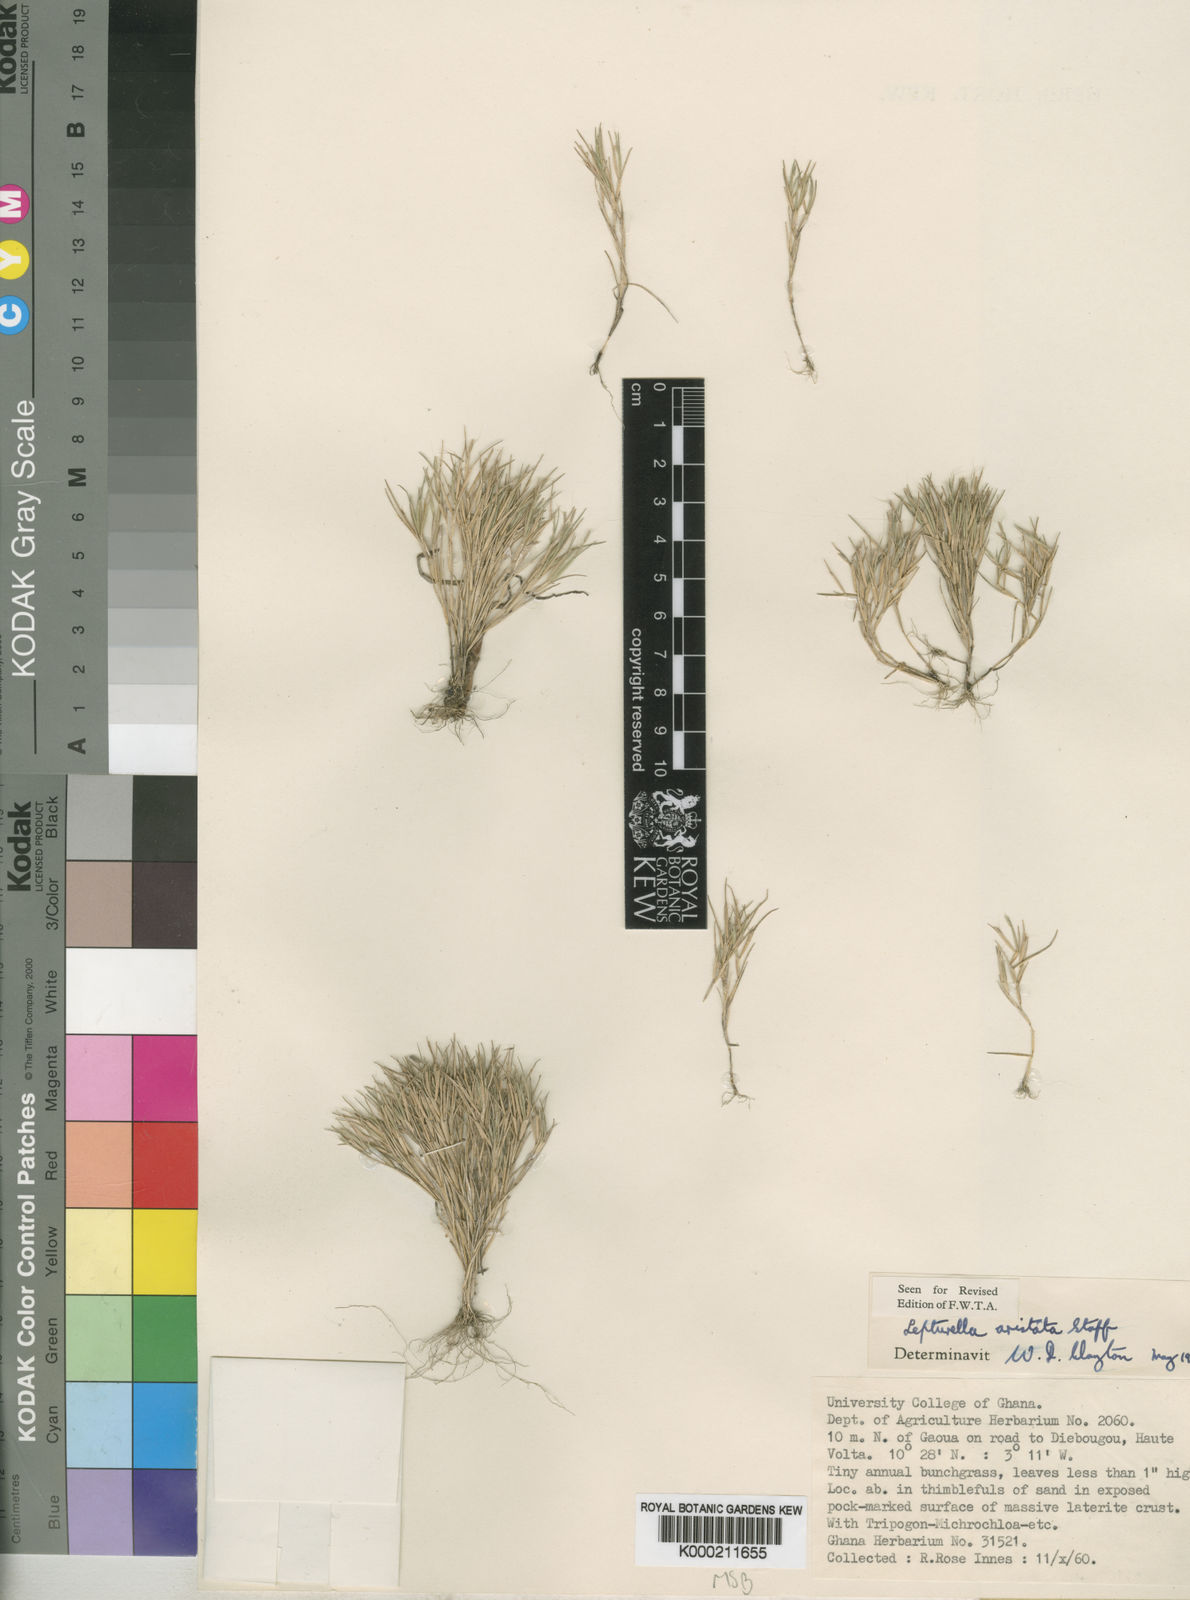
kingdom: Plantae
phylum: Tracheophyta
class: Liliopsida
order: Poales
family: Poaceae
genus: Oropetium
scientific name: Oropetium aristatum
